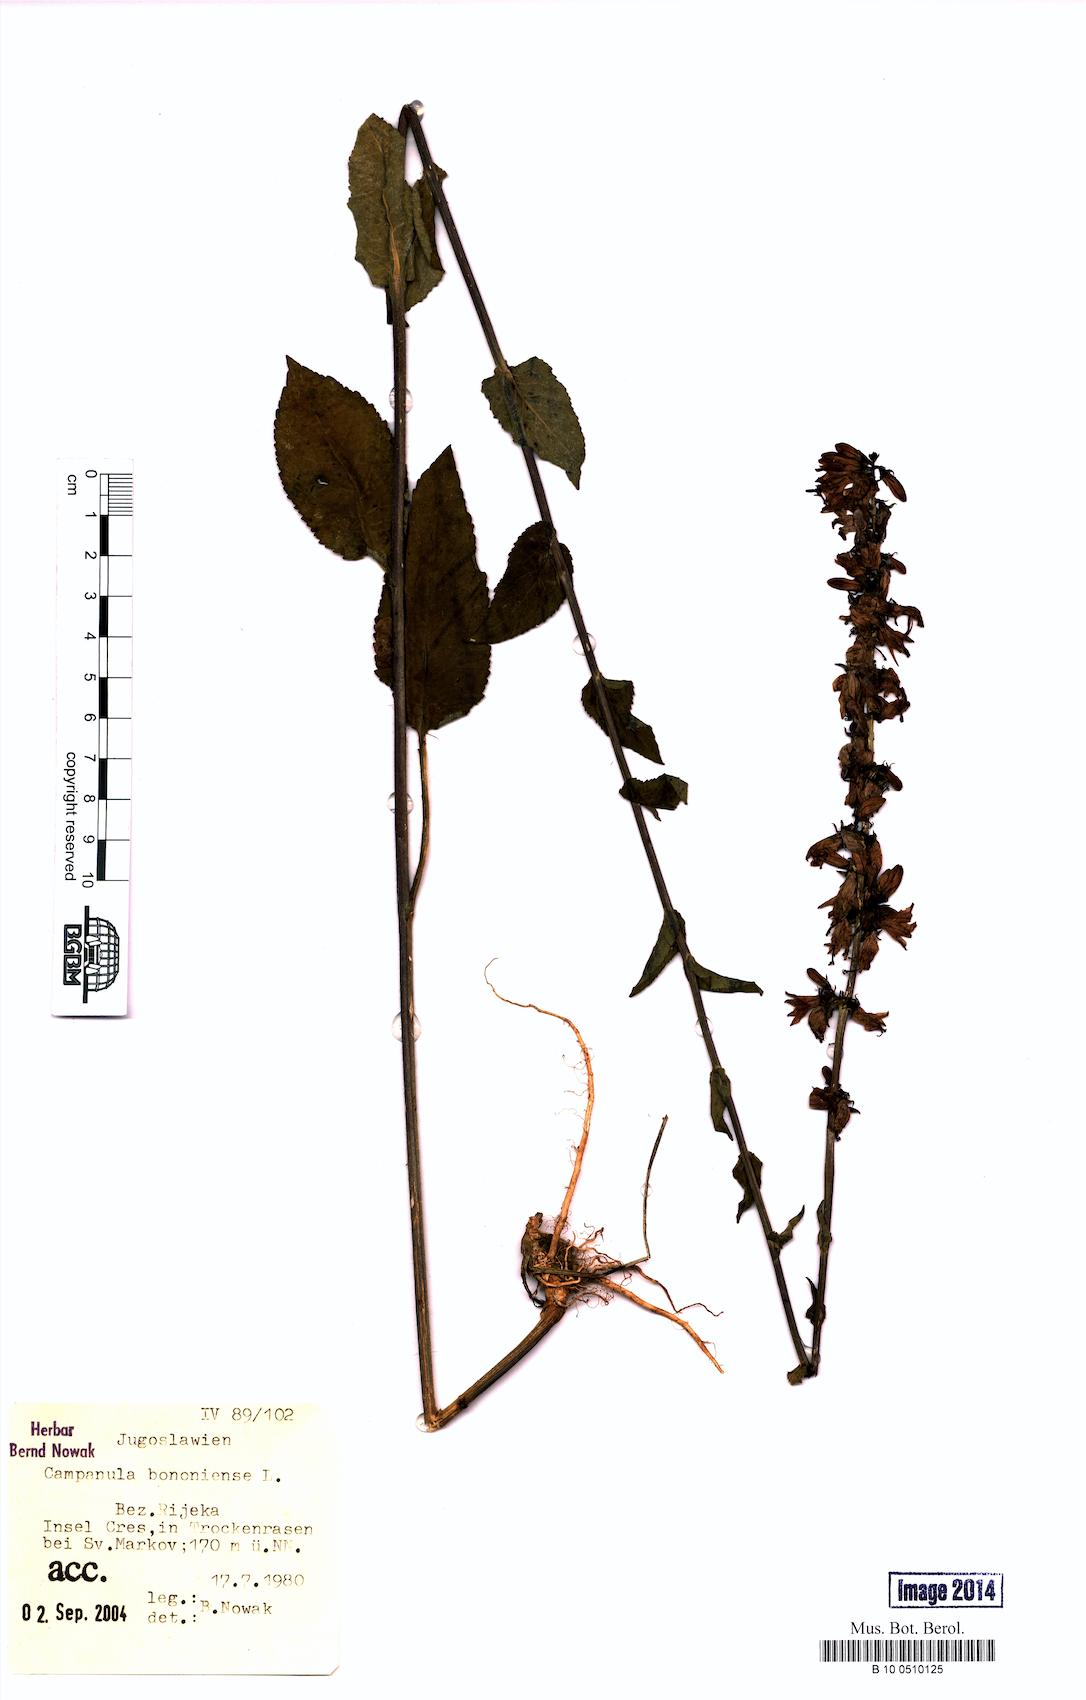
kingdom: Plantae
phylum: Tracheophyta
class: Magnoliopsida
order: Asterales
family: Campanulaceae
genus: Campanula
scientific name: Campanula bononiensis
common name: Pale bellflower
